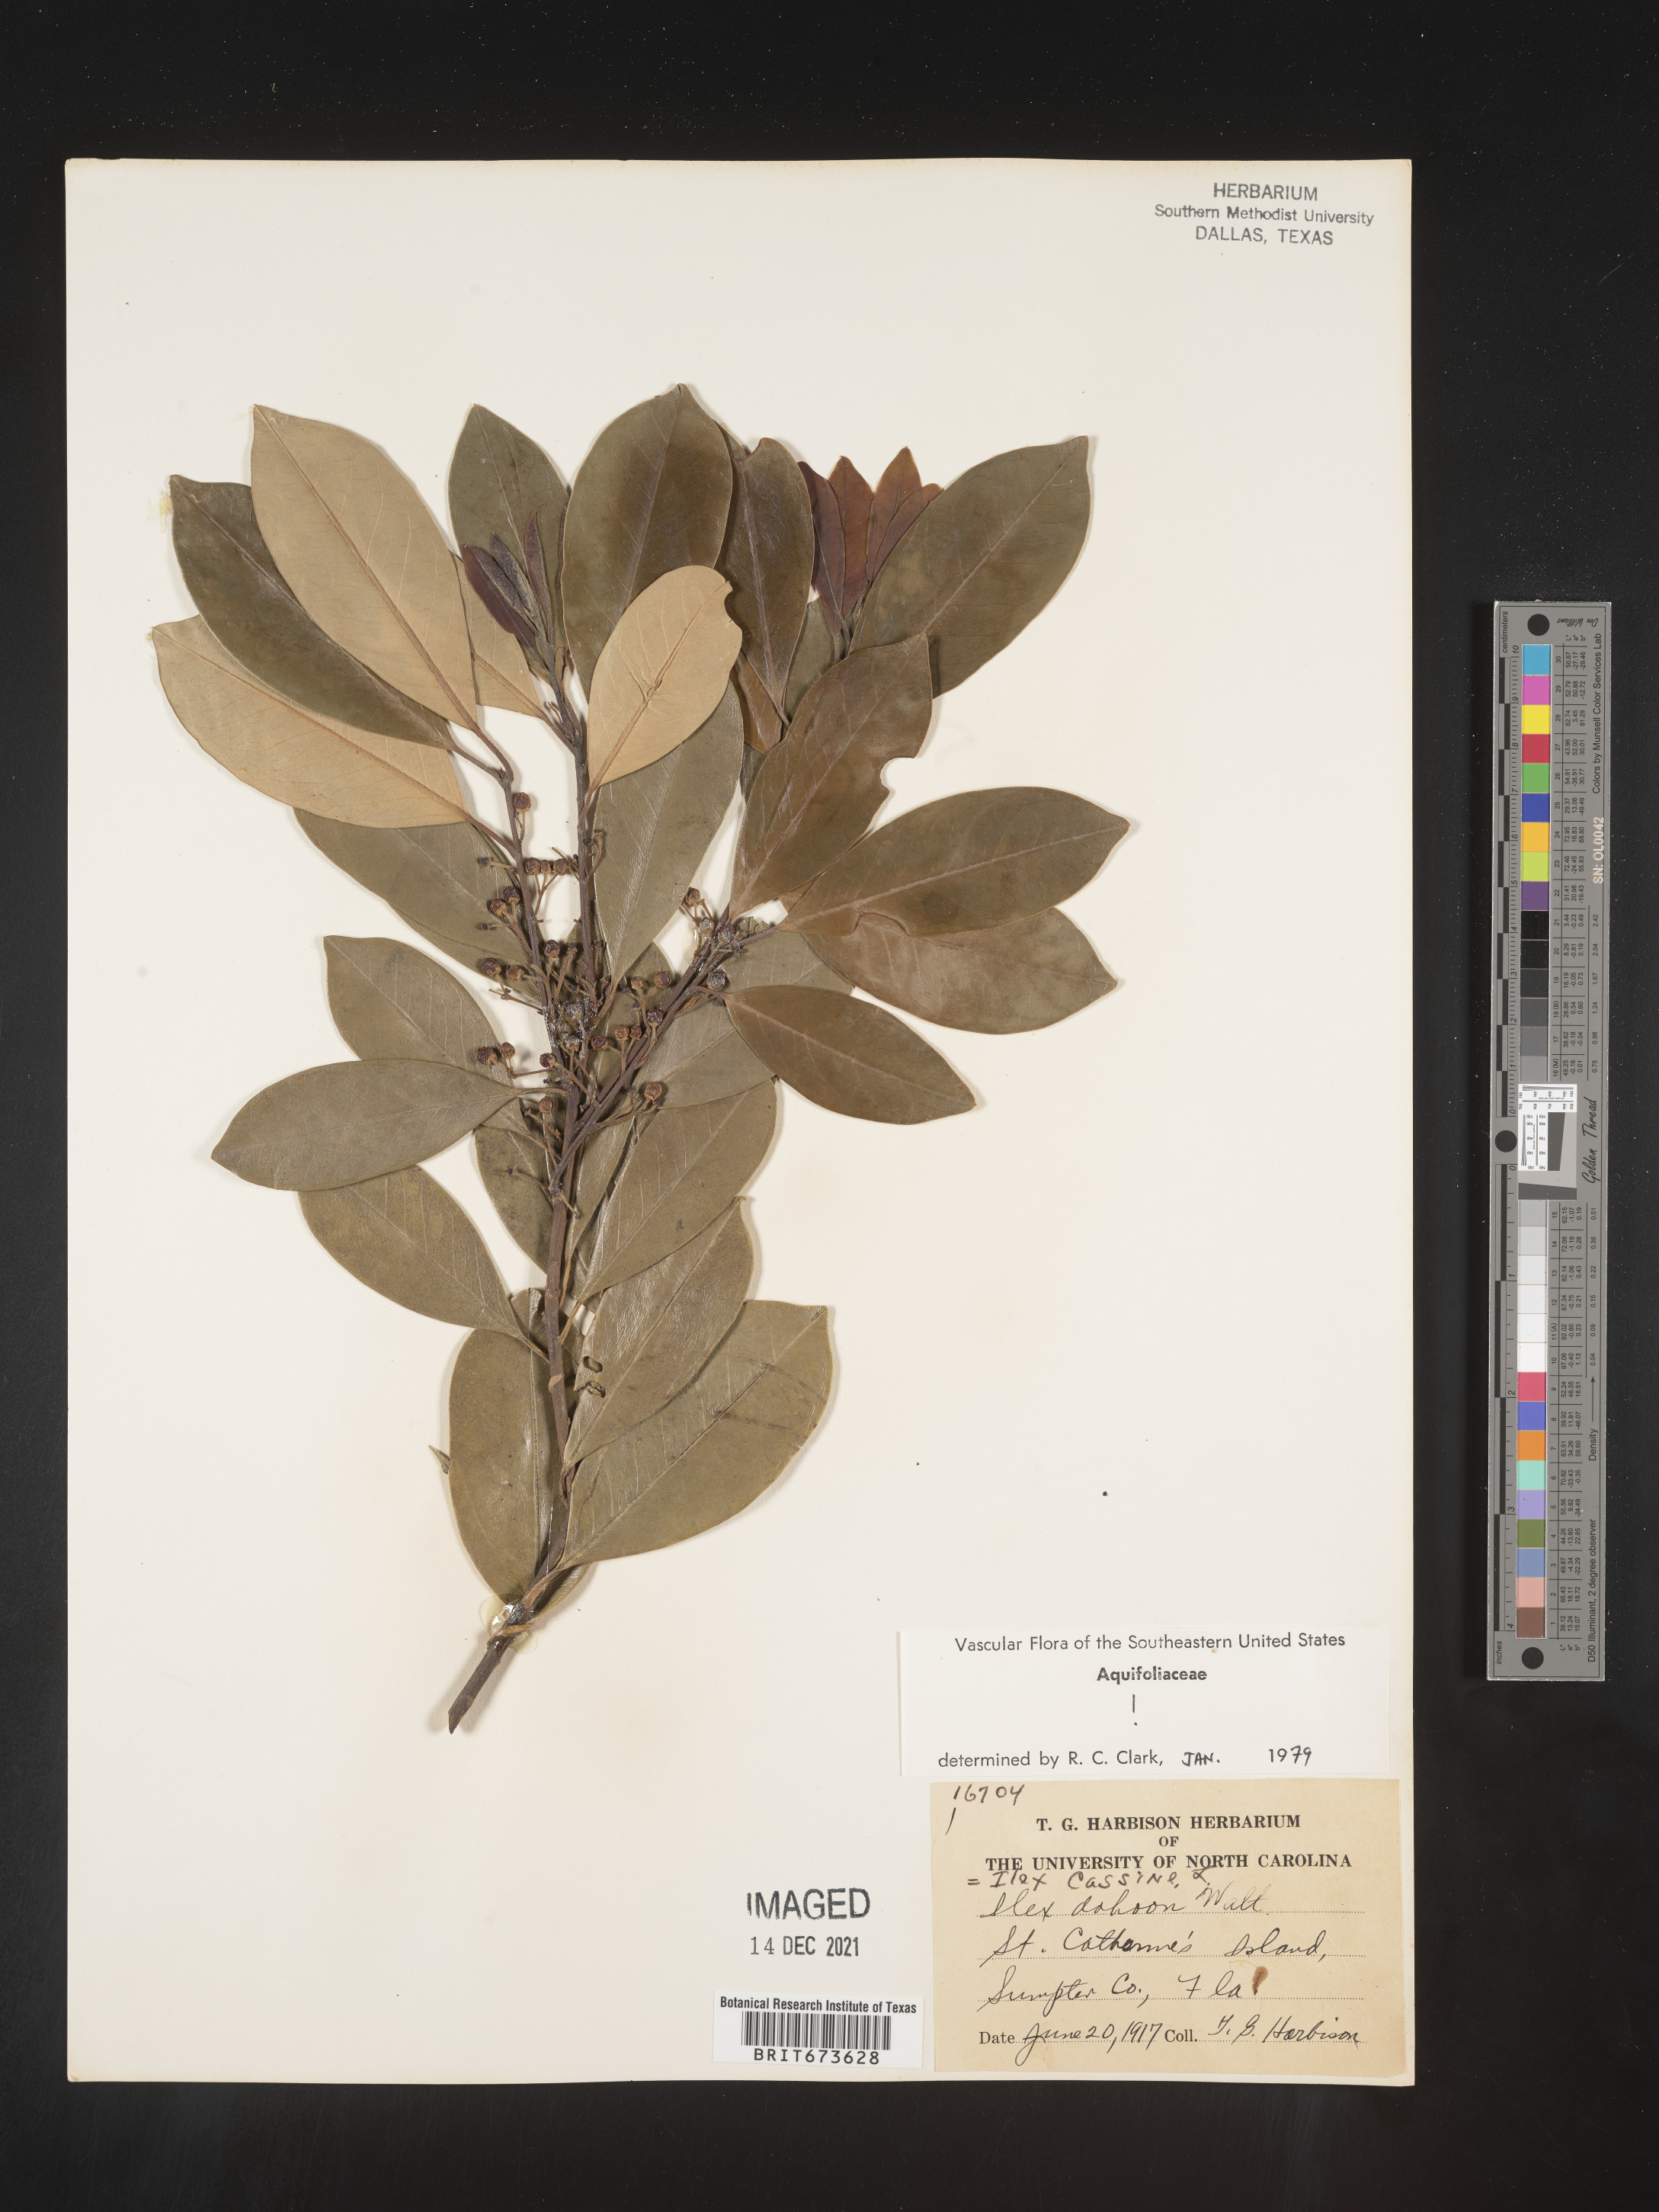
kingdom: Plantae
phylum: Tracheophyta
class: Magnoliopsida
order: Aquifoliales
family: Aquifoliaceae
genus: Ilex
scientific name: Ilex cassine
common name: Dahoon
